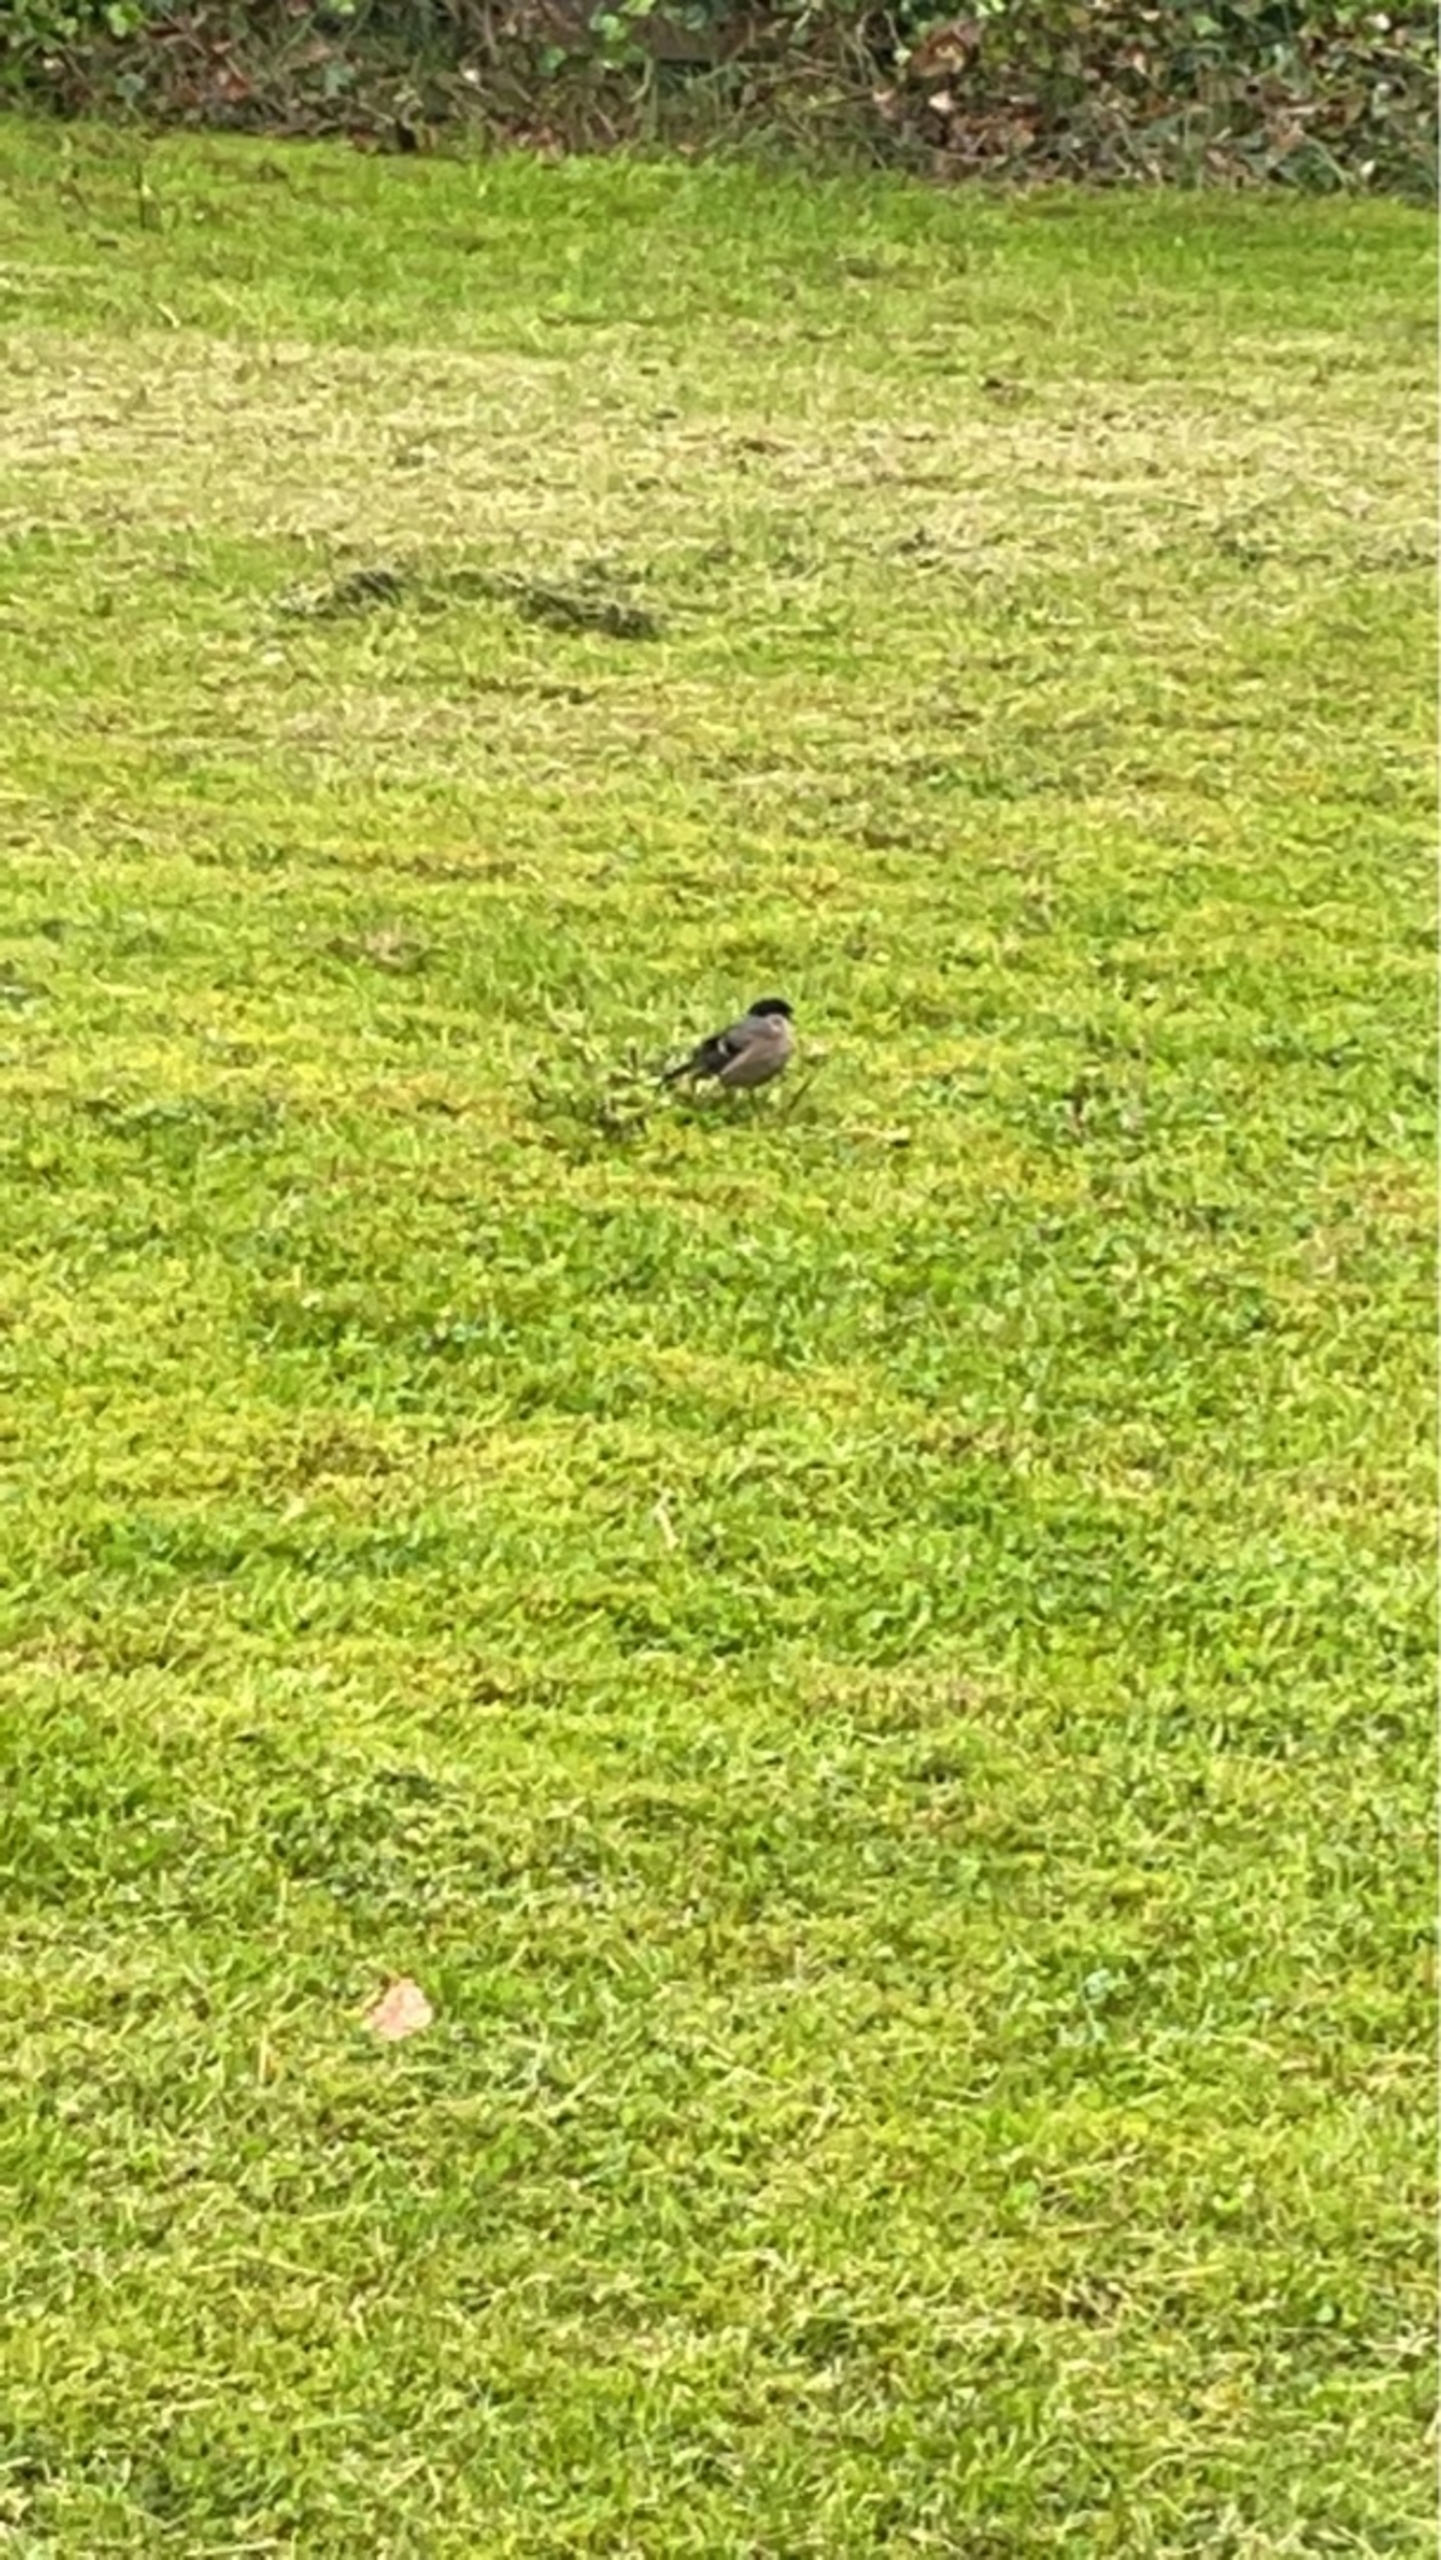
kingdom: Animalia
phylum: Chordata
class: Aves
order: Passeriformes
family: Fringillidae
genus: Pyrrhula
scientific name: Pyrrhula pyrrhula
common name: Dompap
